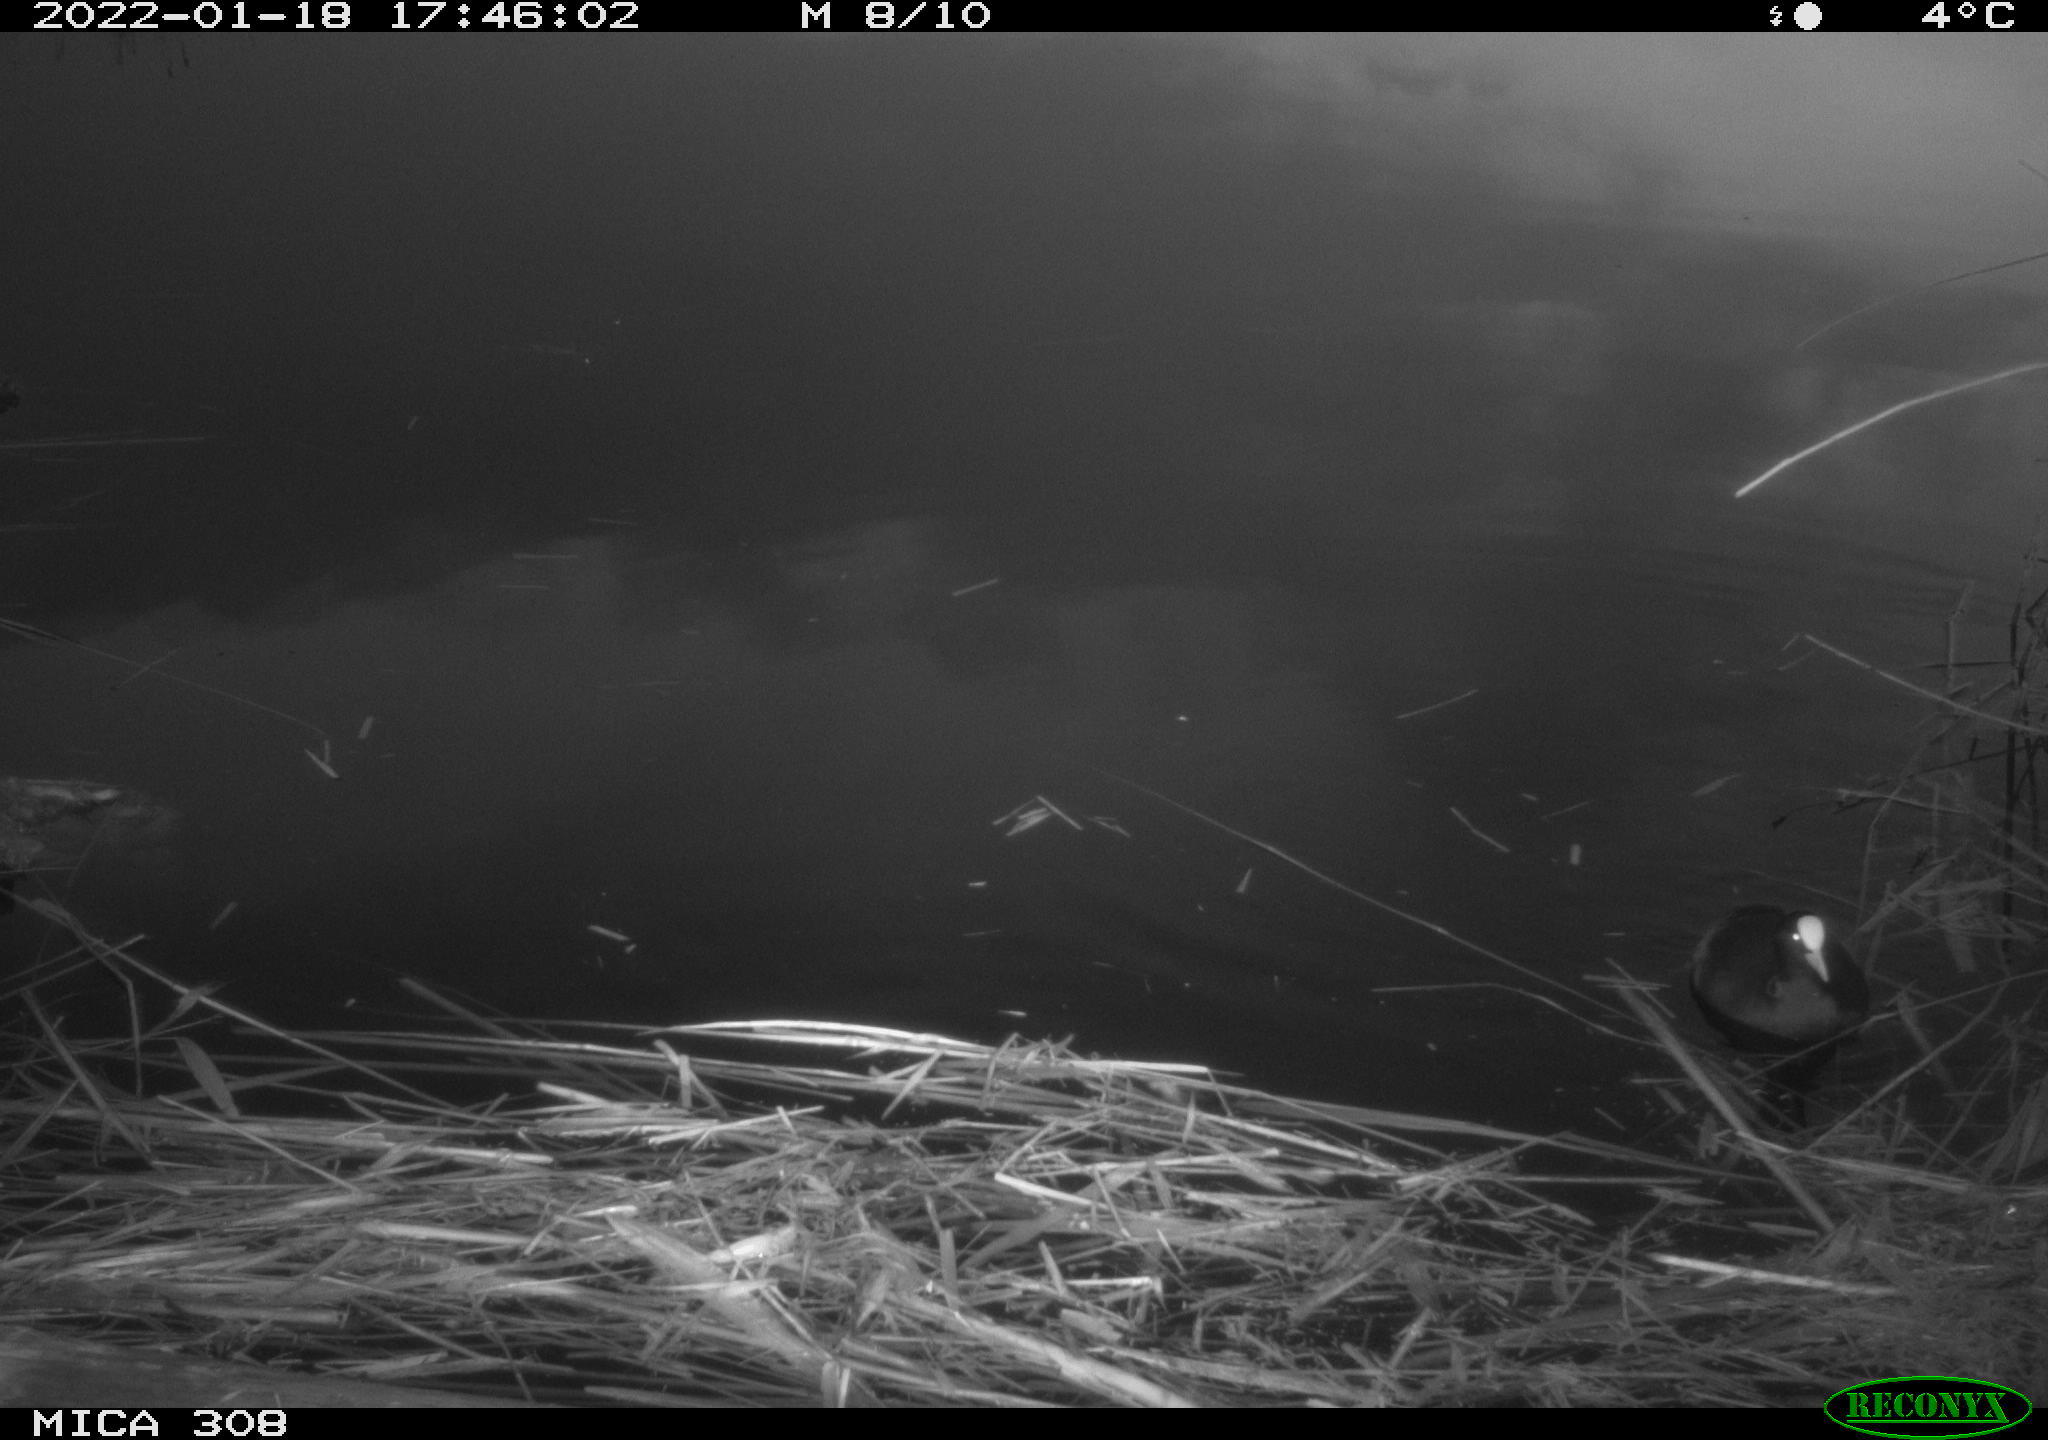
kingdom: Animalia
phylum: Chordata
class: Aves
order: Gruiformes
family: Rallidae
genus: Fulica
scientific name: Fulica atra
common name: Eurasian coot
